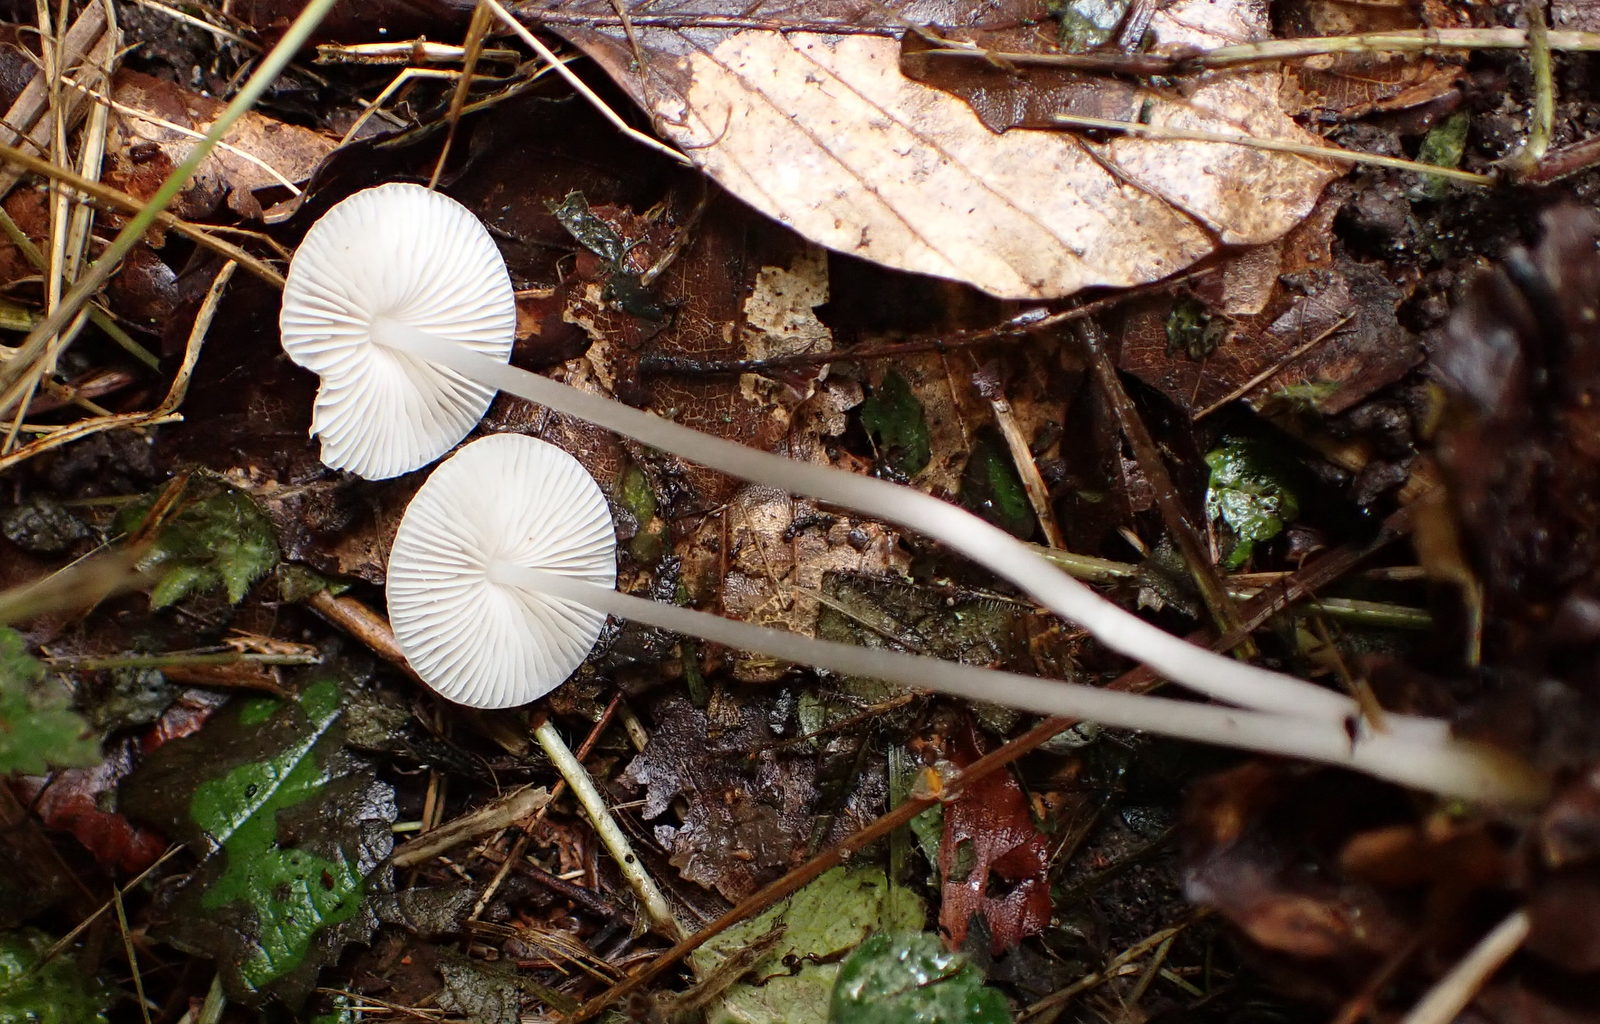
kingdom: Fungi
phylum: Basidiomycota
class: Agaricomycetes
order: Agaricales
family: Mycenaceae
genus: Mycena
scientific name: Mycena vitilis
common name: blankstokket huesvamp
